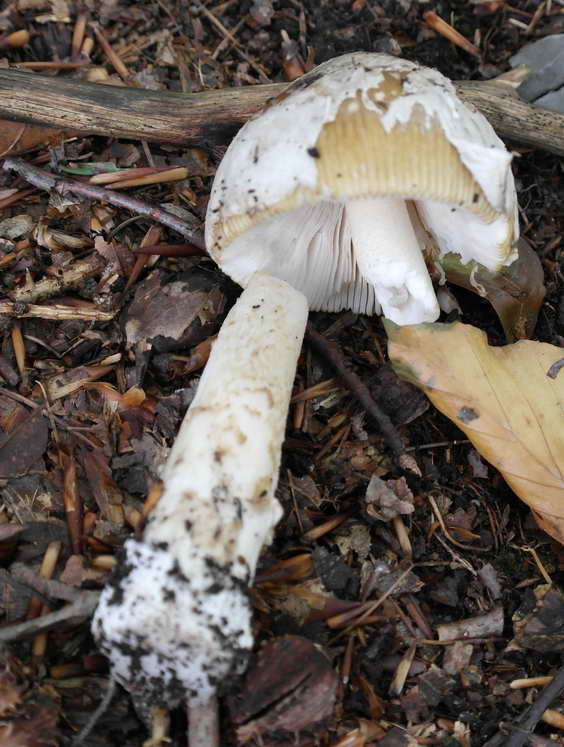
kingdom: Fungi
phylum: Basidiomycota
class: Agaricomycetes
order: Agaricales
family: Amanitaceae
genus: Amanita
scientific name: Amanita crocea
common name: gylden kam-fluesvamp
